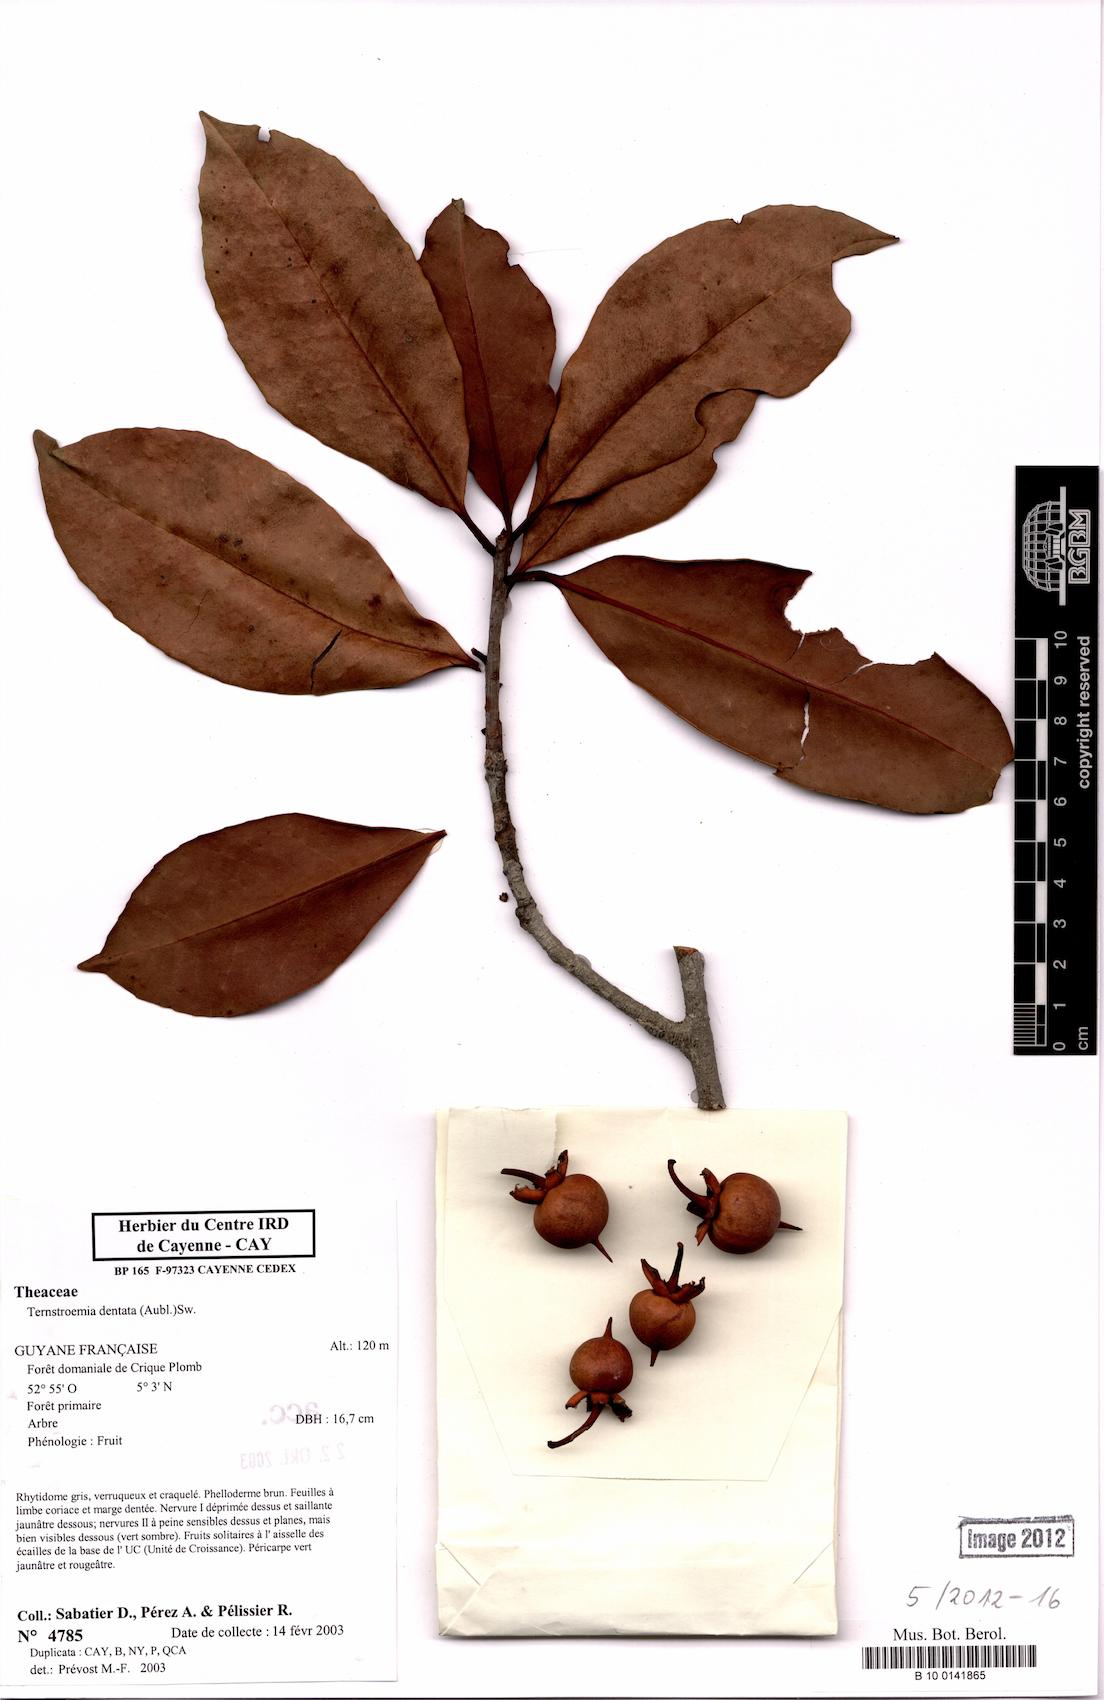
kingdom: Plantae
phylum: Tracheophyta
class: Magnoliopsida
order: Ericales
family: Pentaphylacaceae
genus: Ternstroemia
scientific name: Ternstroemia dentata
